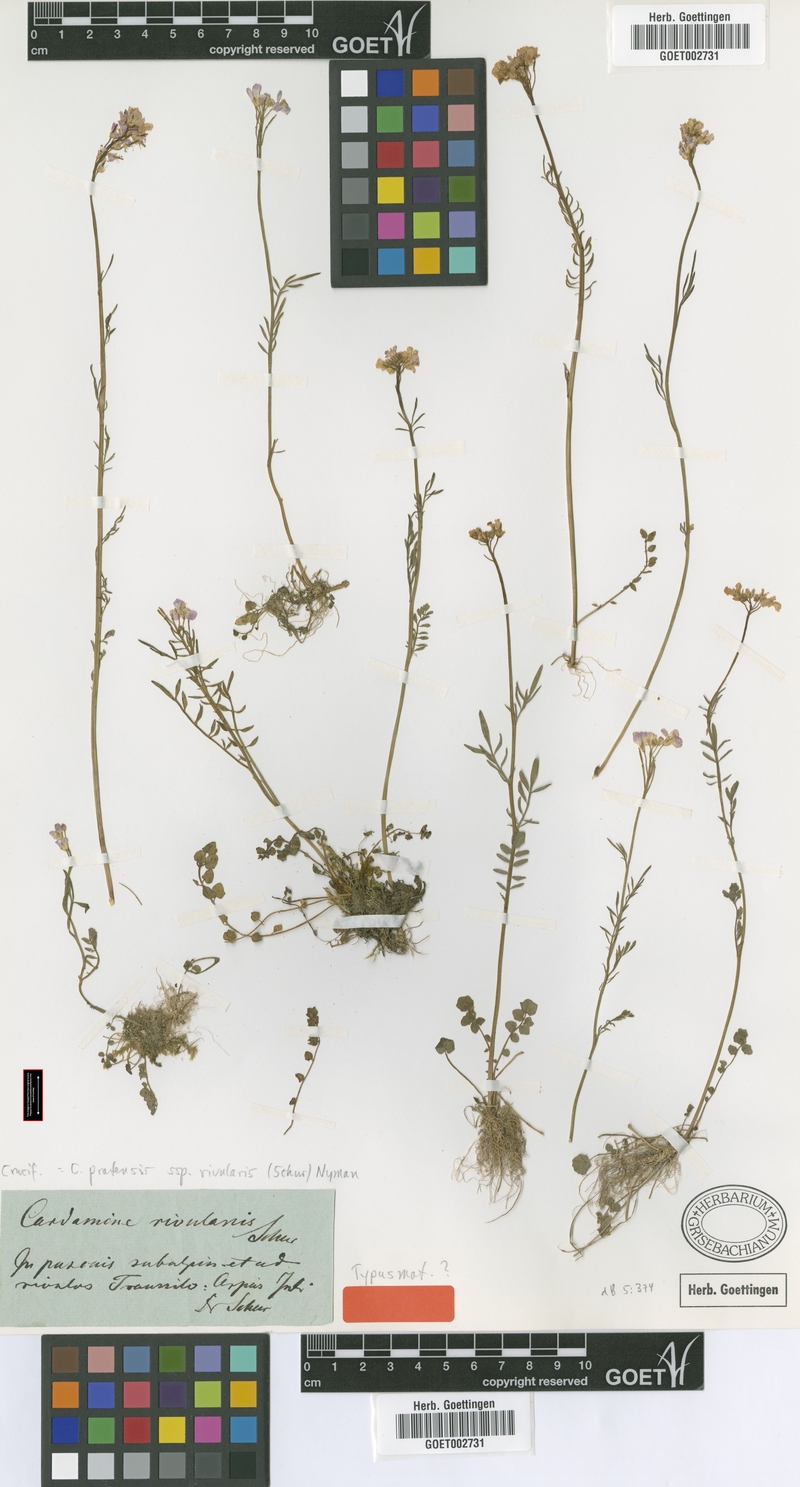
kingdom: Plantae
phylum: Tracheophyta
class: Magnoliopsida
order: Brassicales
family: Brassicaceae
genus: Cardamine
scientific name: Cardamine pratensis
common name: Cuckoo flower
